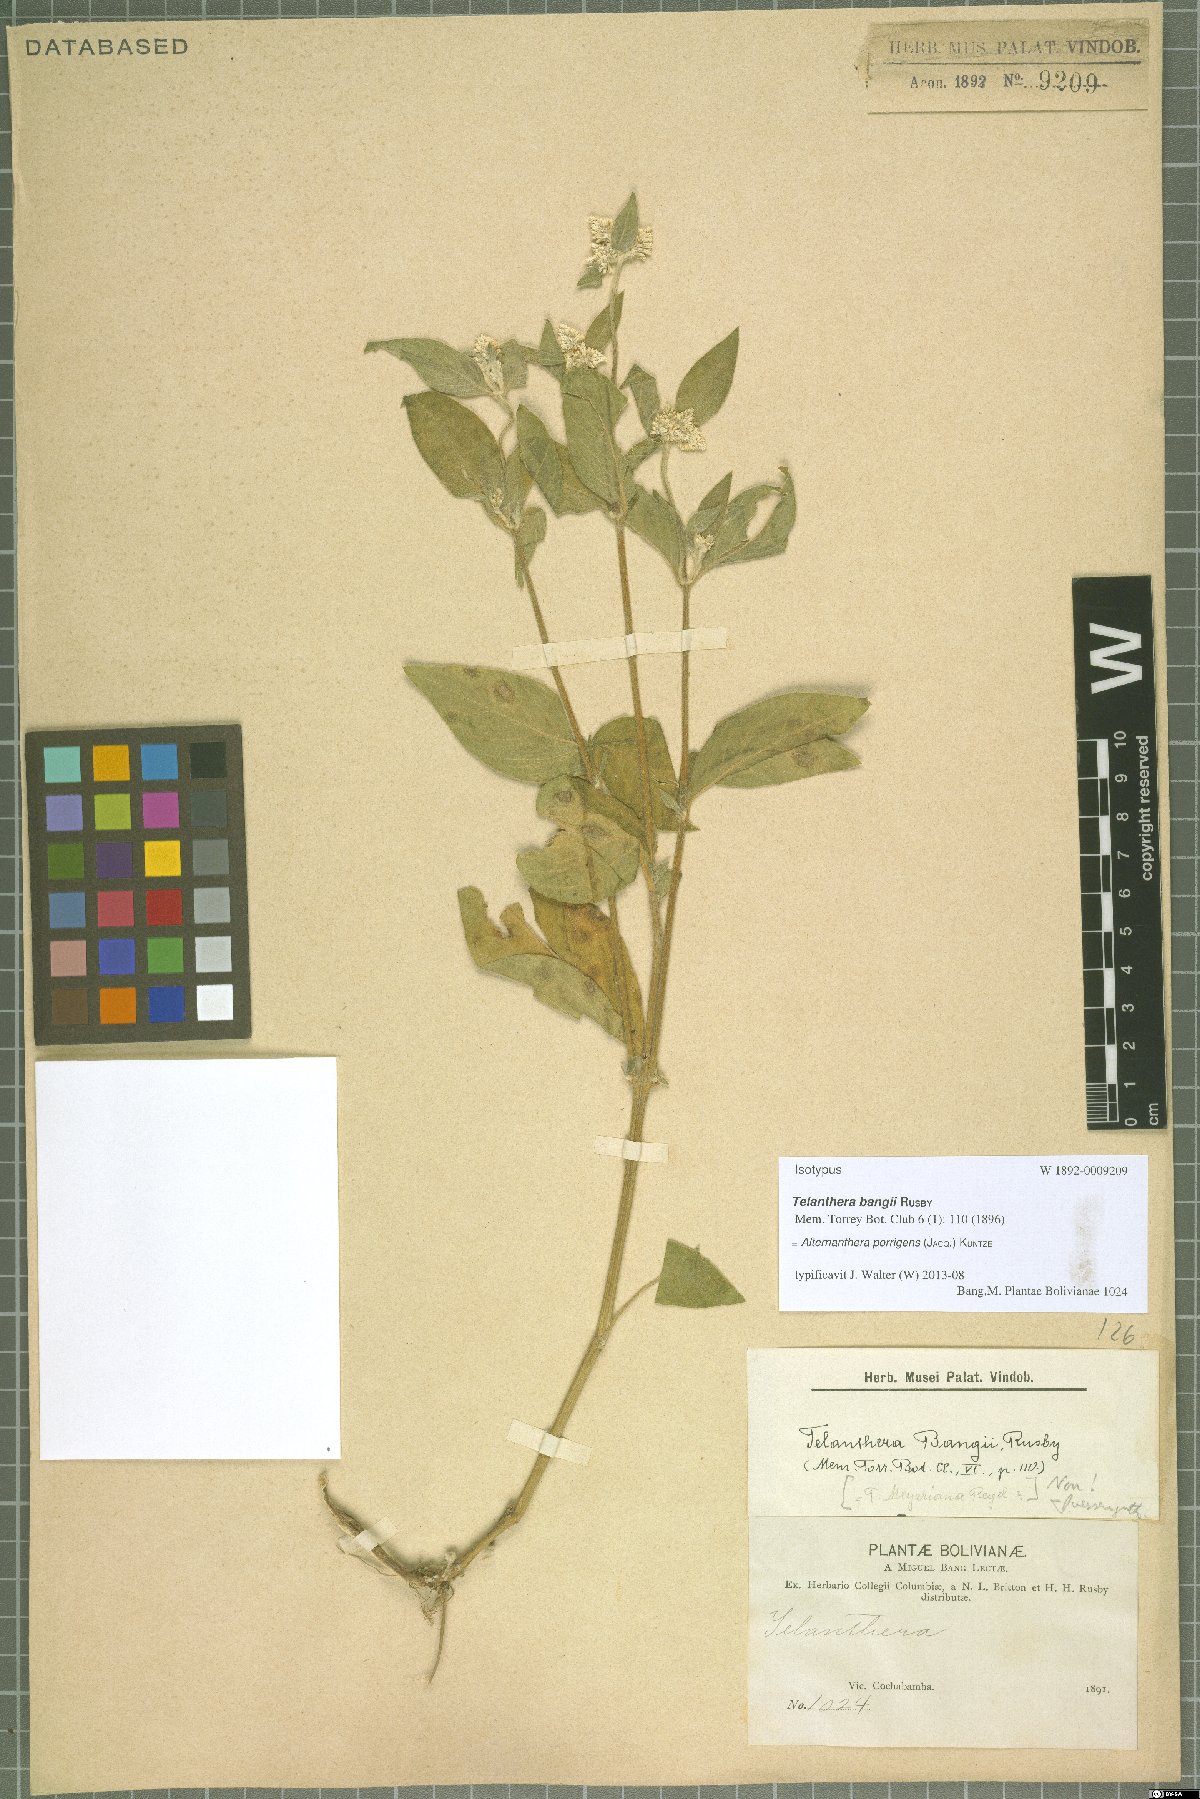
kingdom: Plantae
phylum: Tracheophyta
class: Magnoliopsida
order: Caryophyllales
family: Amaranthaceae
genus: Alternanthera
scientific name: Alternanthera porrigens
